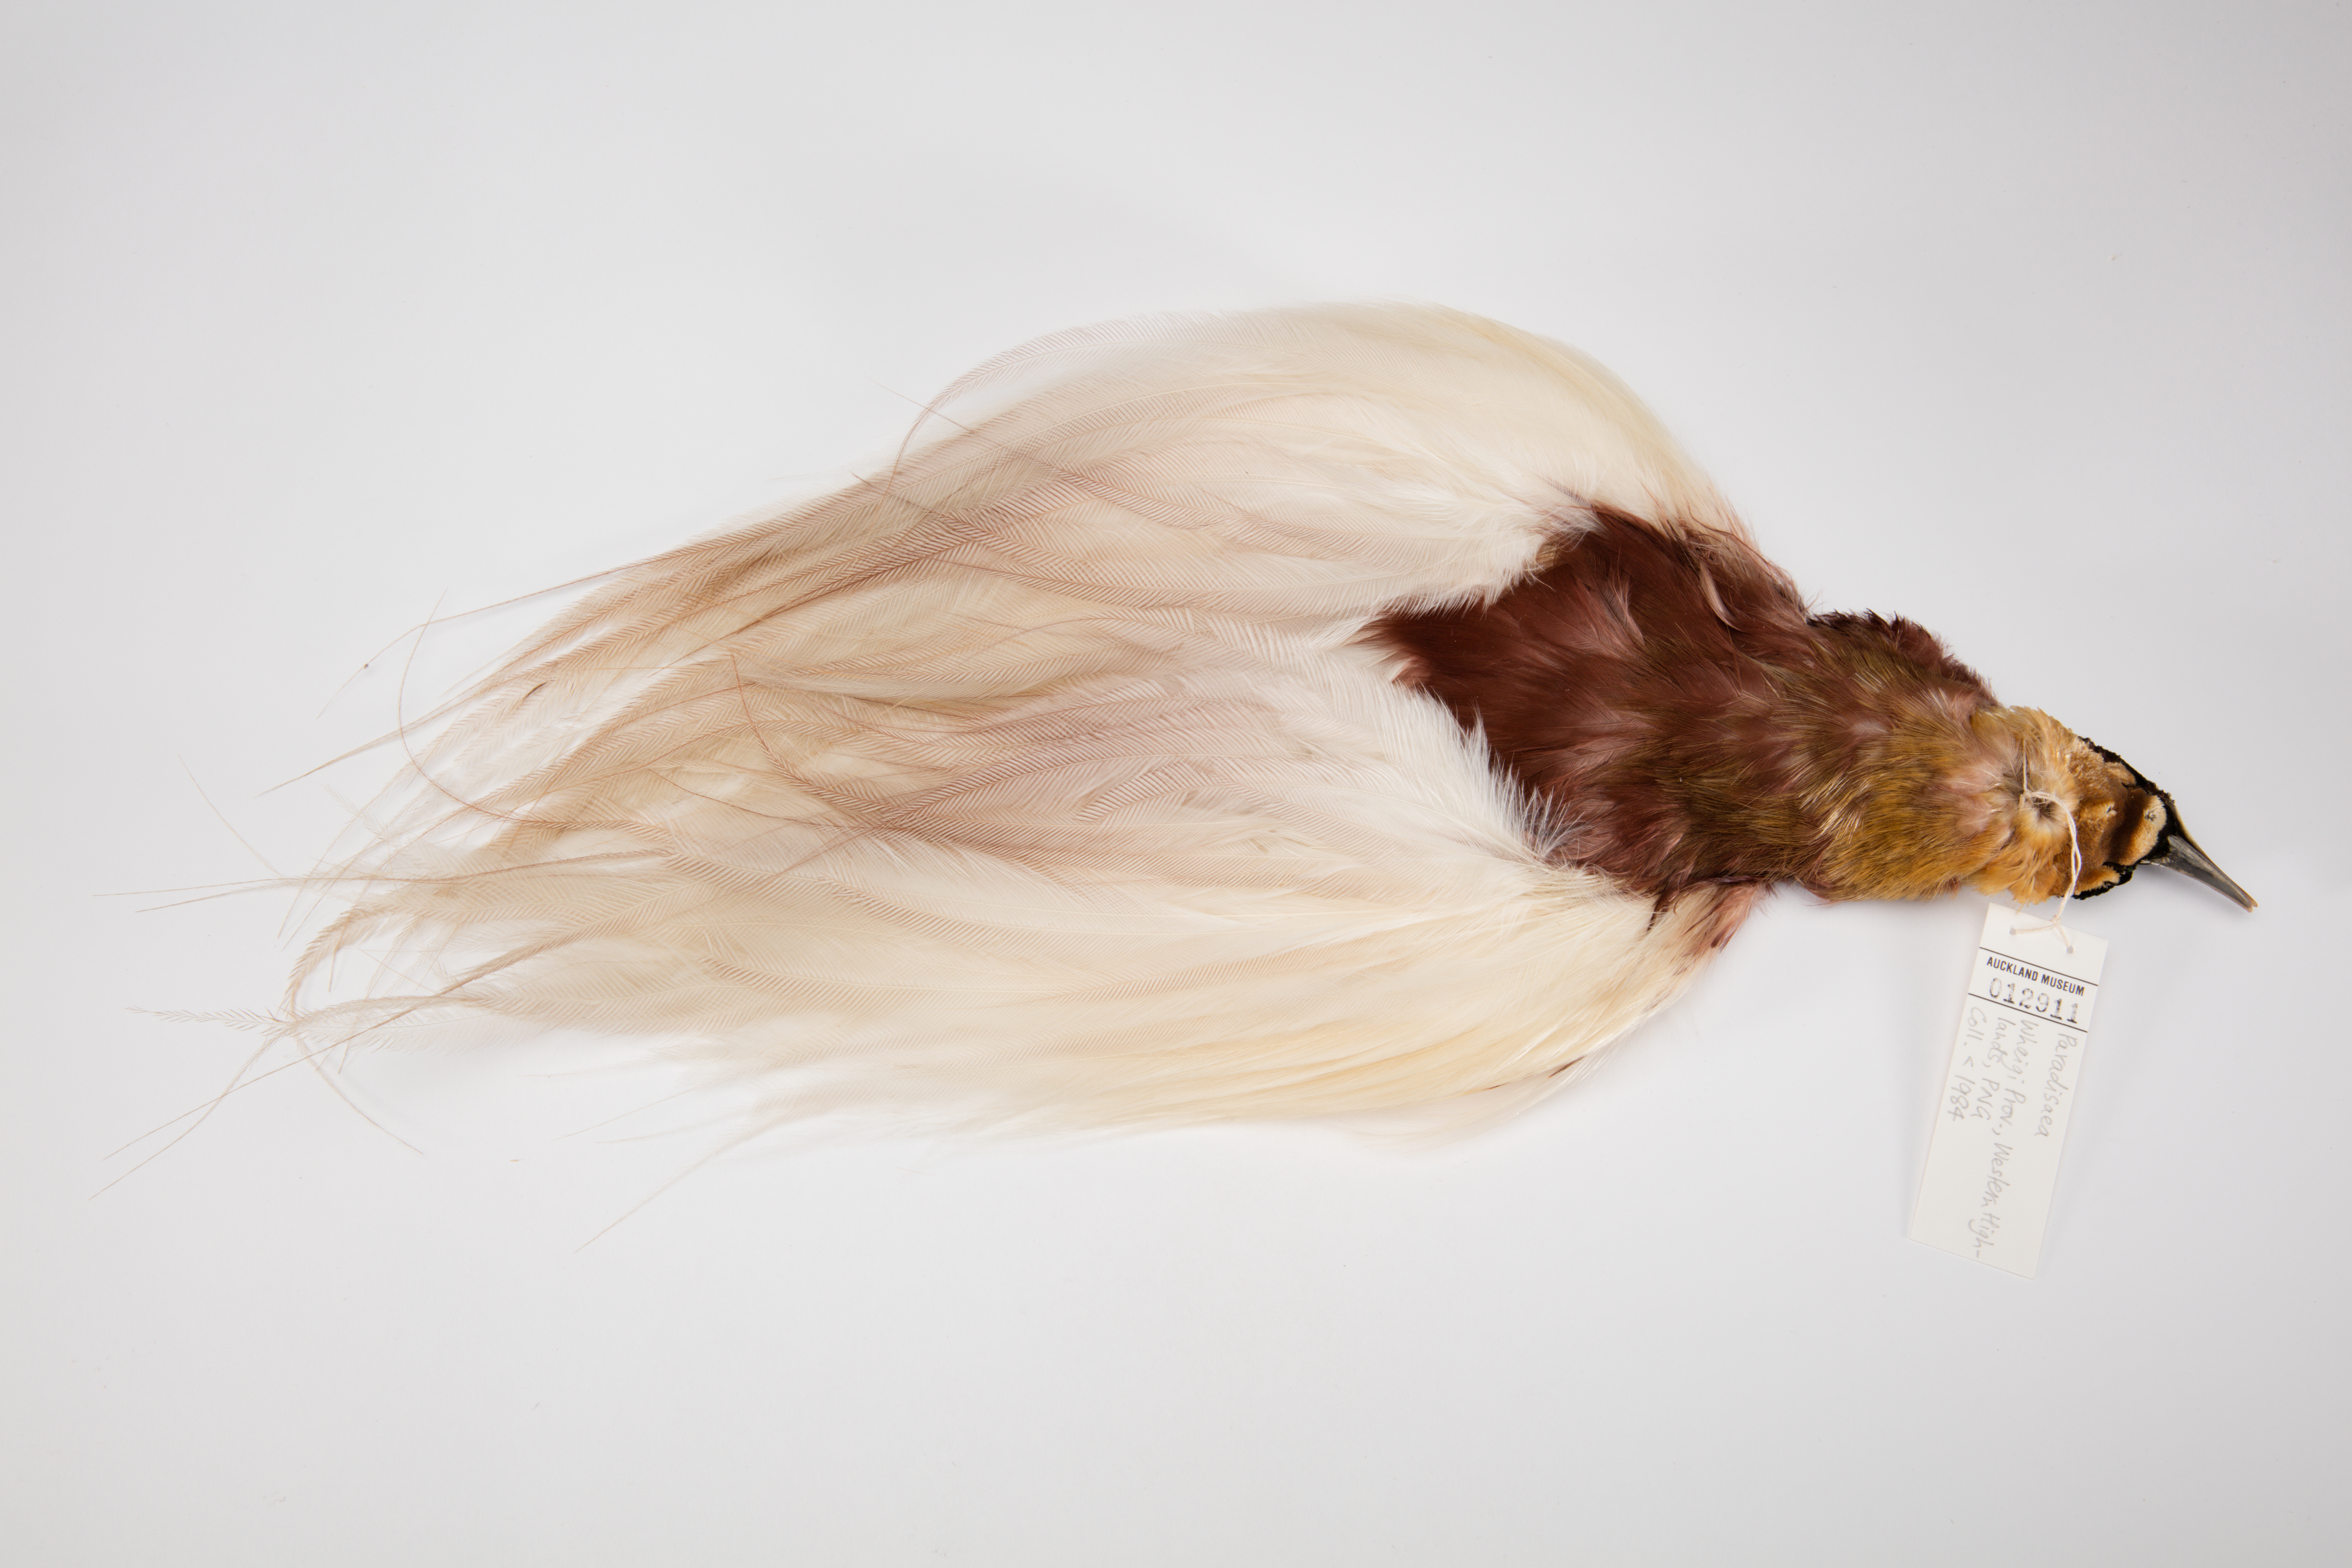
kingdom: Animalia
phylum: Chordata
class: Aves
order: Passeriformes
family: Paradisaeidae
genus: Paradisaea
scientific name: Paradisaea
